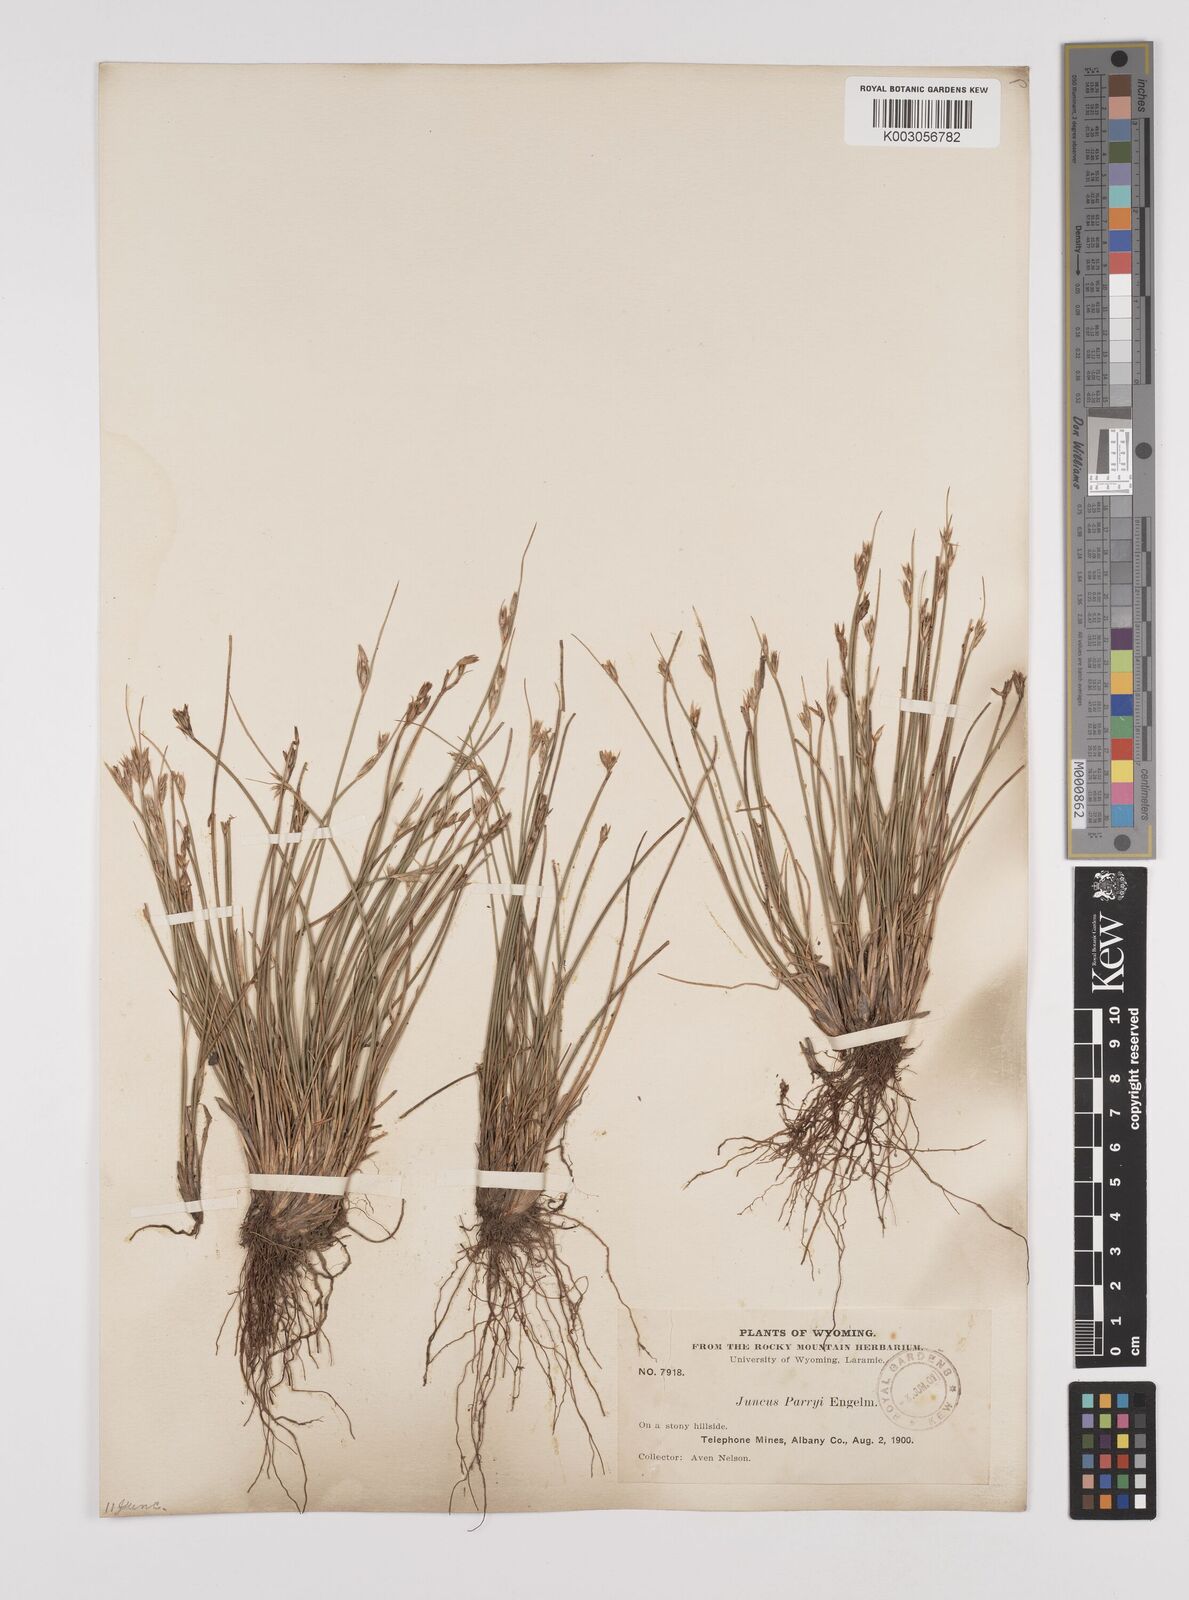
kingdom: Plantae
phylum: Tracheophyta
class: Liliopsida
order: Poales
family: Juncaceae
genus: Juncus
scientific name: Juncus parryi
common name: Parry's rush
